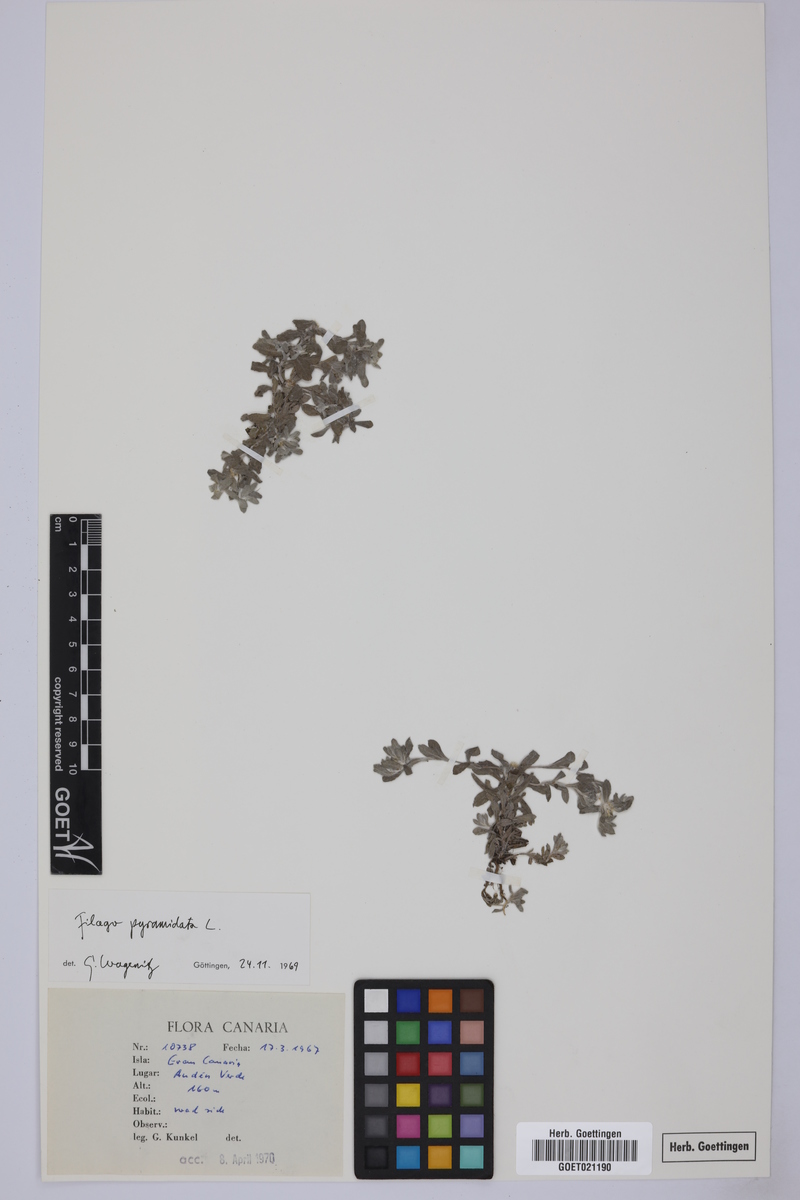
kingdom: Plantae
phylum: Tracheophyta
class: Magnoliopsida
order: Asterales
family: Asteraceae
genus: Filago
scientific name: Filago pyramidata
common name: Broad-leaved cudweed
